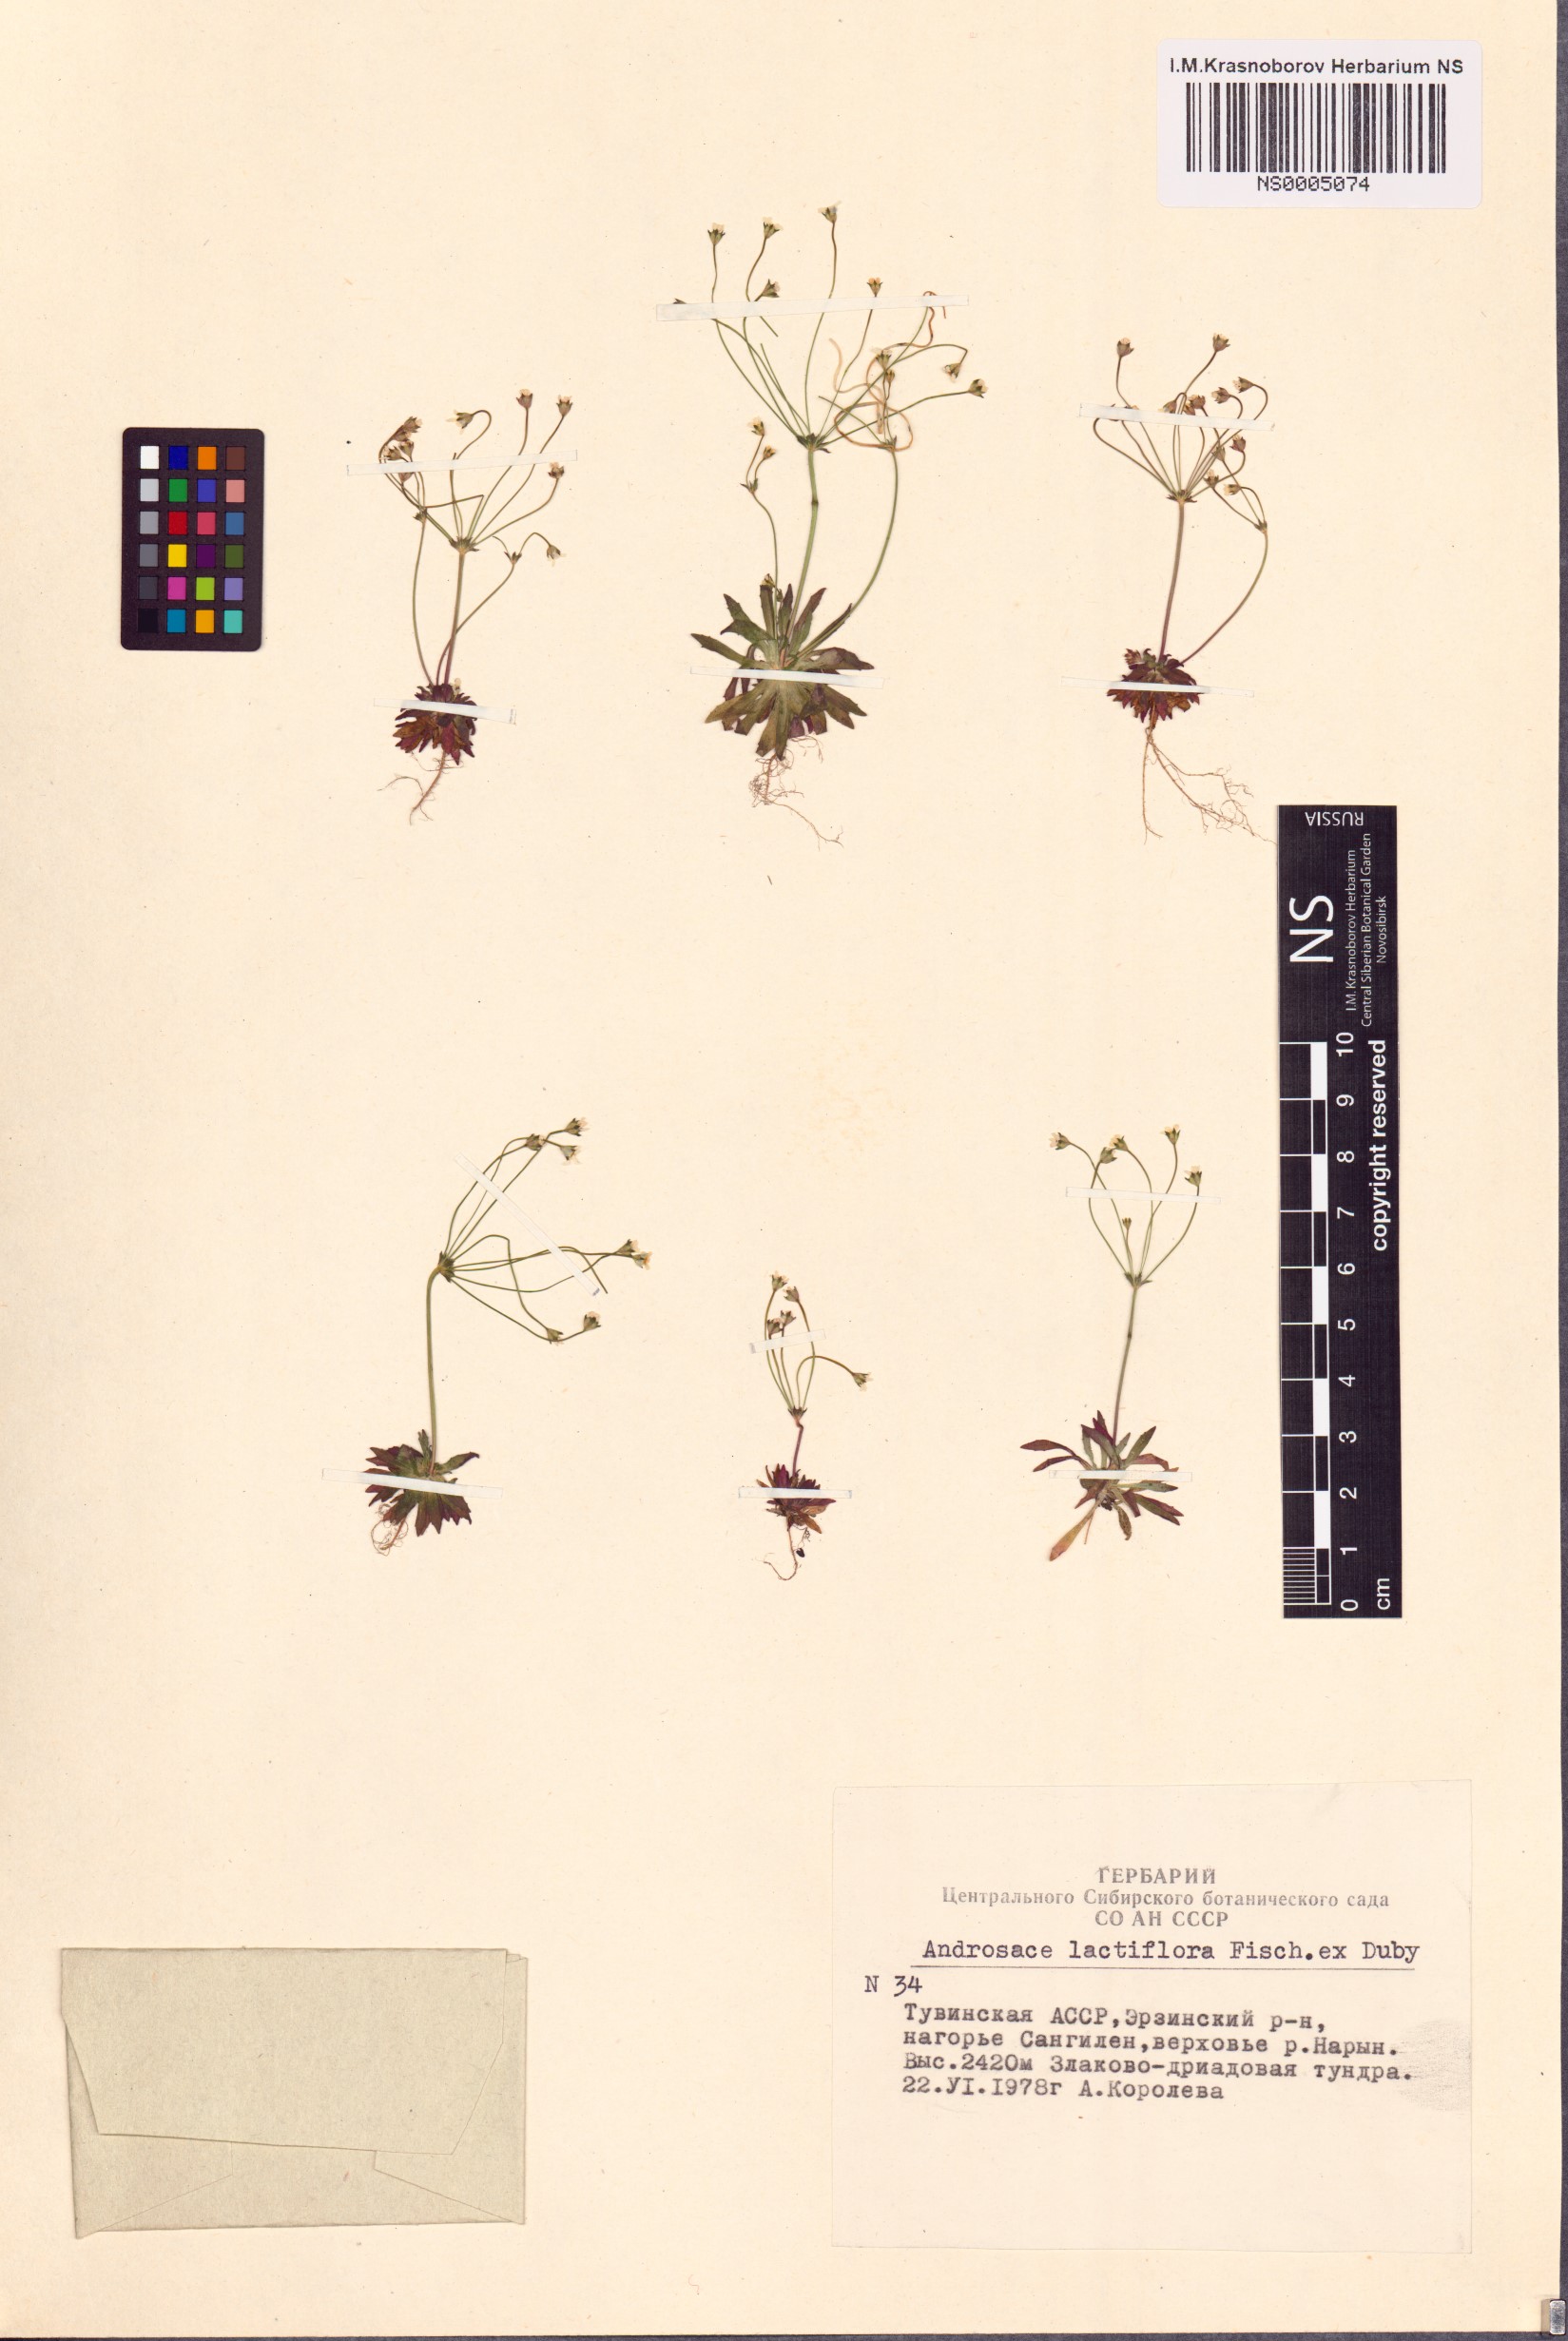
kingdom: Plantae
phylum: Tracheophyta
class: Magnoliopsida
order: Ericales
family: Primulaceae
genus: Androsace
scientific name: Androsace lactiflora
